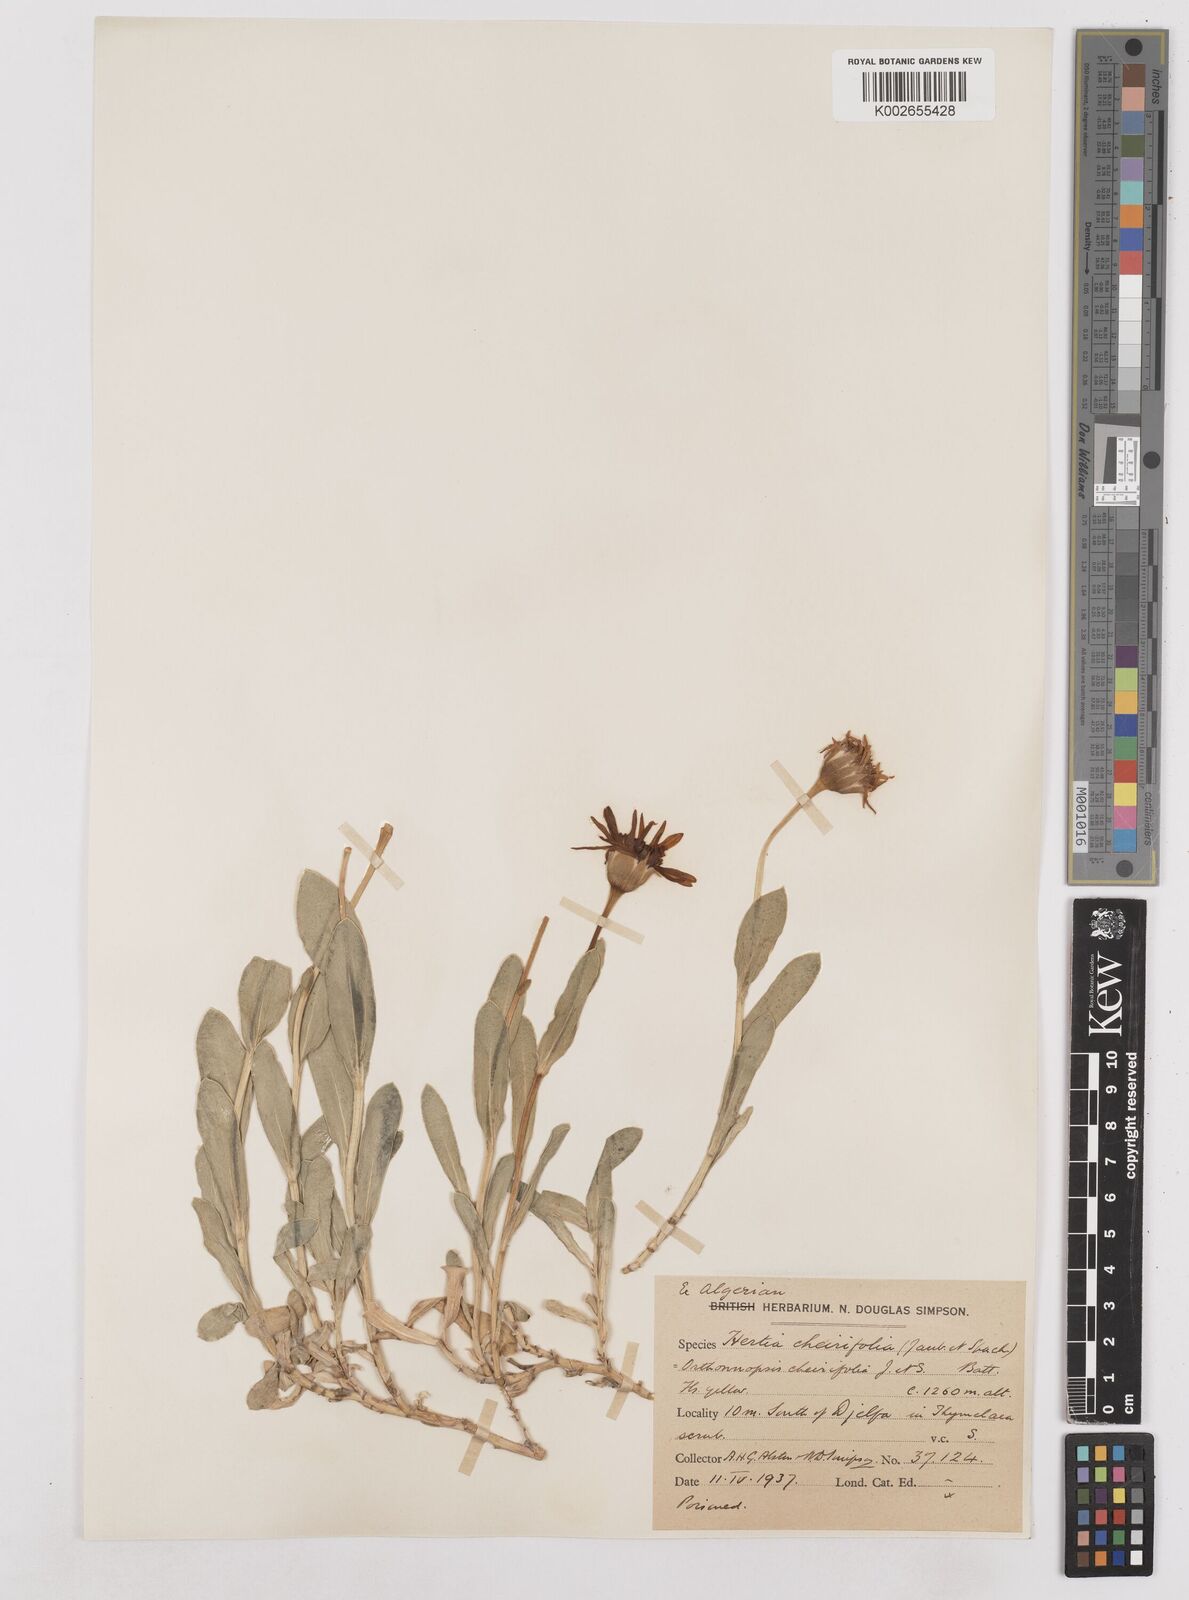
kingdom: Plantae
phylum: Tracheophyta
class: Magnoliopsida
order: Asterales
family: Asteraceae
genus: Hertia
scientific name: Hertia cheirifolia
